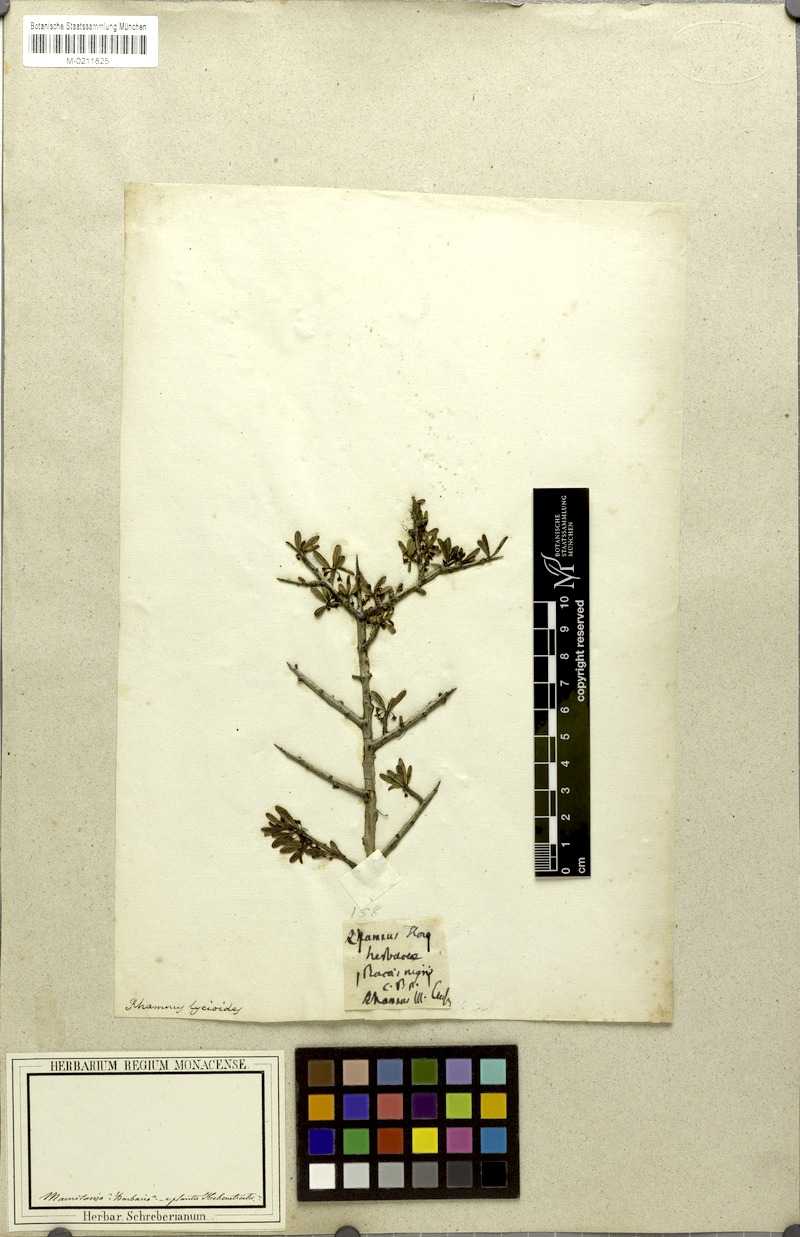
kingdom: Plantae
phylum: Tracheophyta
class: Magnoliopsida
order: Rosales
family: Rhamnaceae
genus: Rhamnus
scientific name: Rhamnus lycioides
